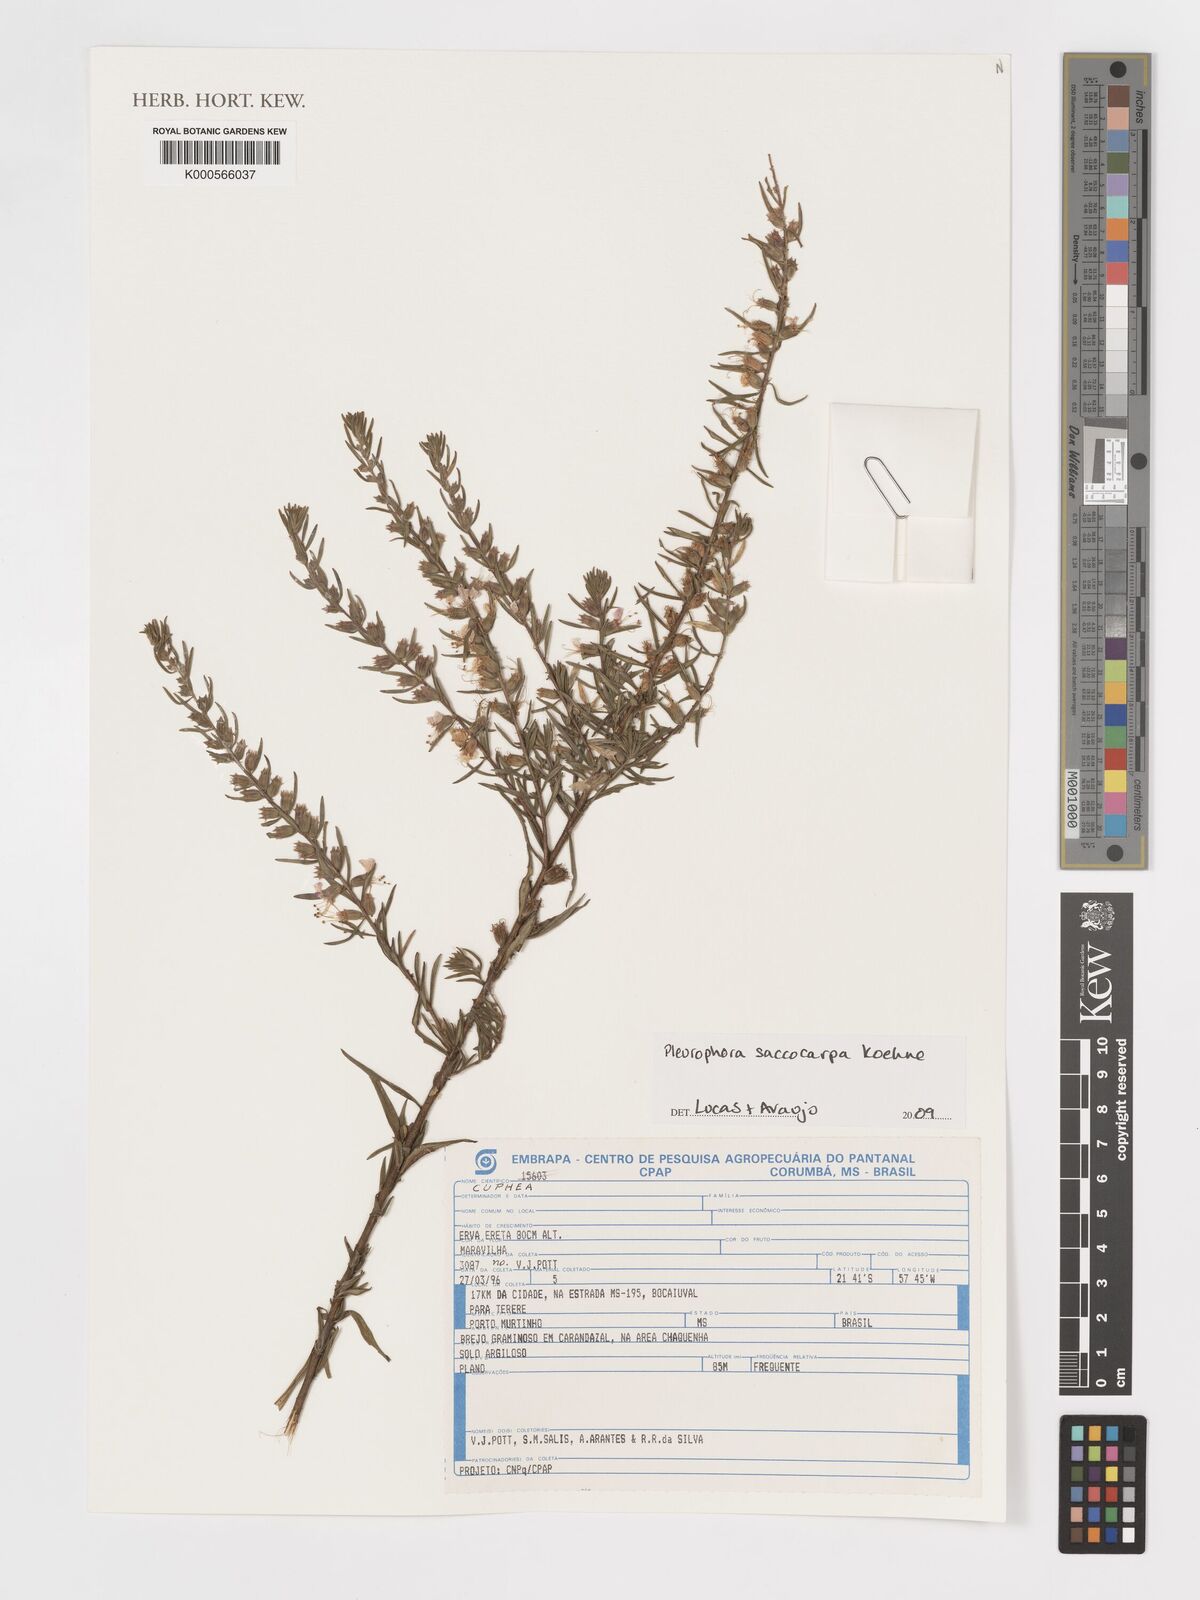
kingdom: Plantae
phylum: Tracheophyta
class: Magnoliopsida
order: Myrtales
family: Lythraceae
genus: Cuphea
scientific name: Cuphea
